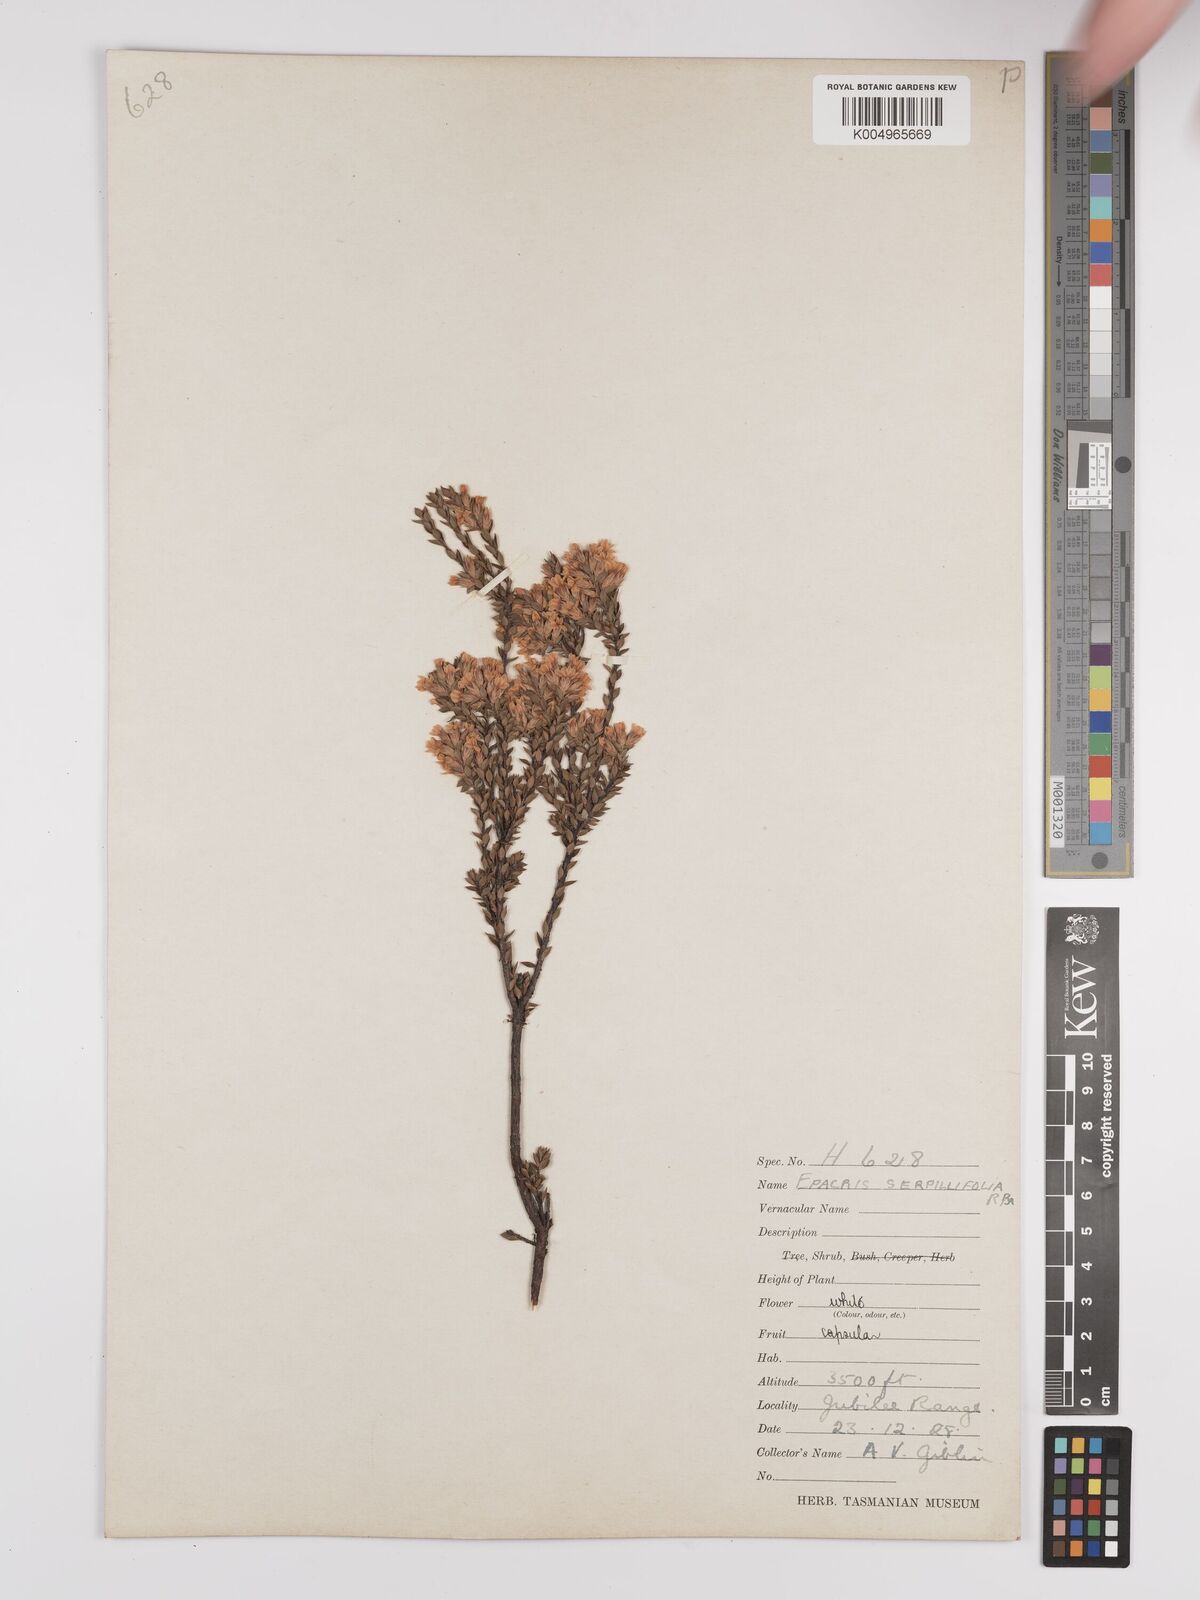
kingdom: Plantae
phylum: Tracheophyta
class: Magnoliopsida
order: Ericales
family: Ericaceae
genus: Epacris
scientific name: Epacris serpyllifolia
